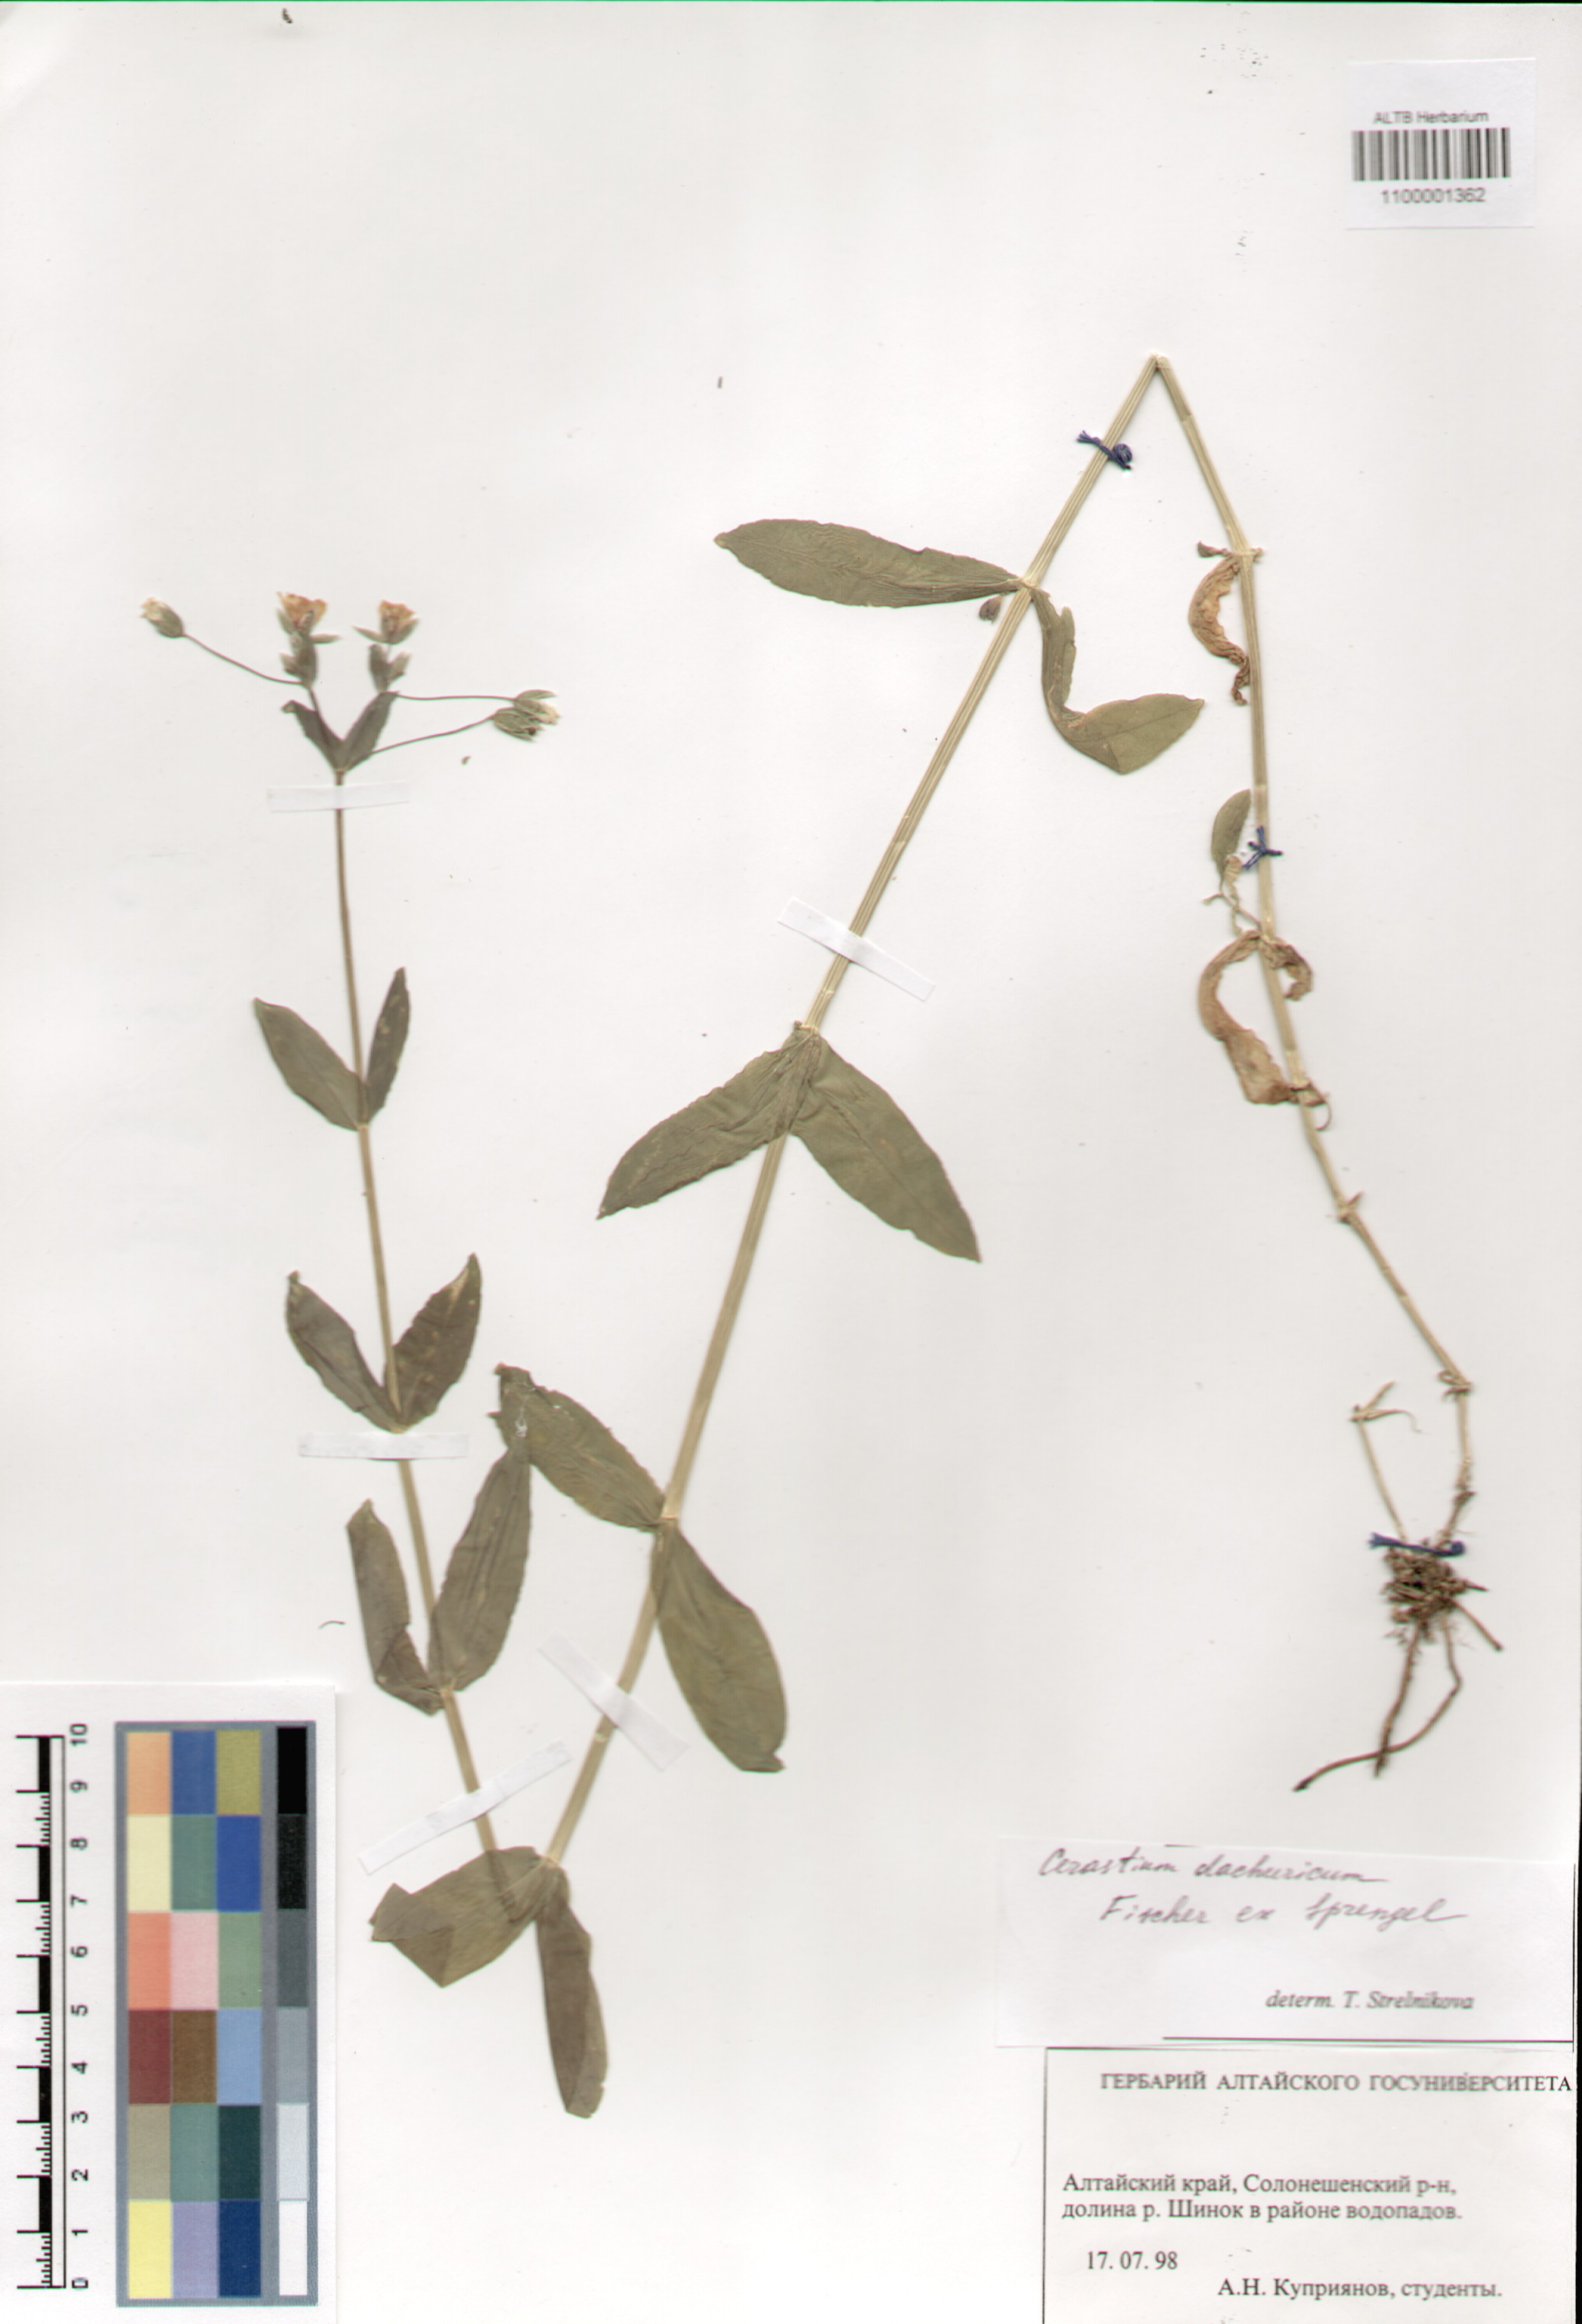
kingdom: Plantae
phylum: Tracheophyta
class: Magnoliopsida
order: Caryophyllales
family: Caryophyllaceae
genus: Dichodon
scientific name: Dichodon davuricum
